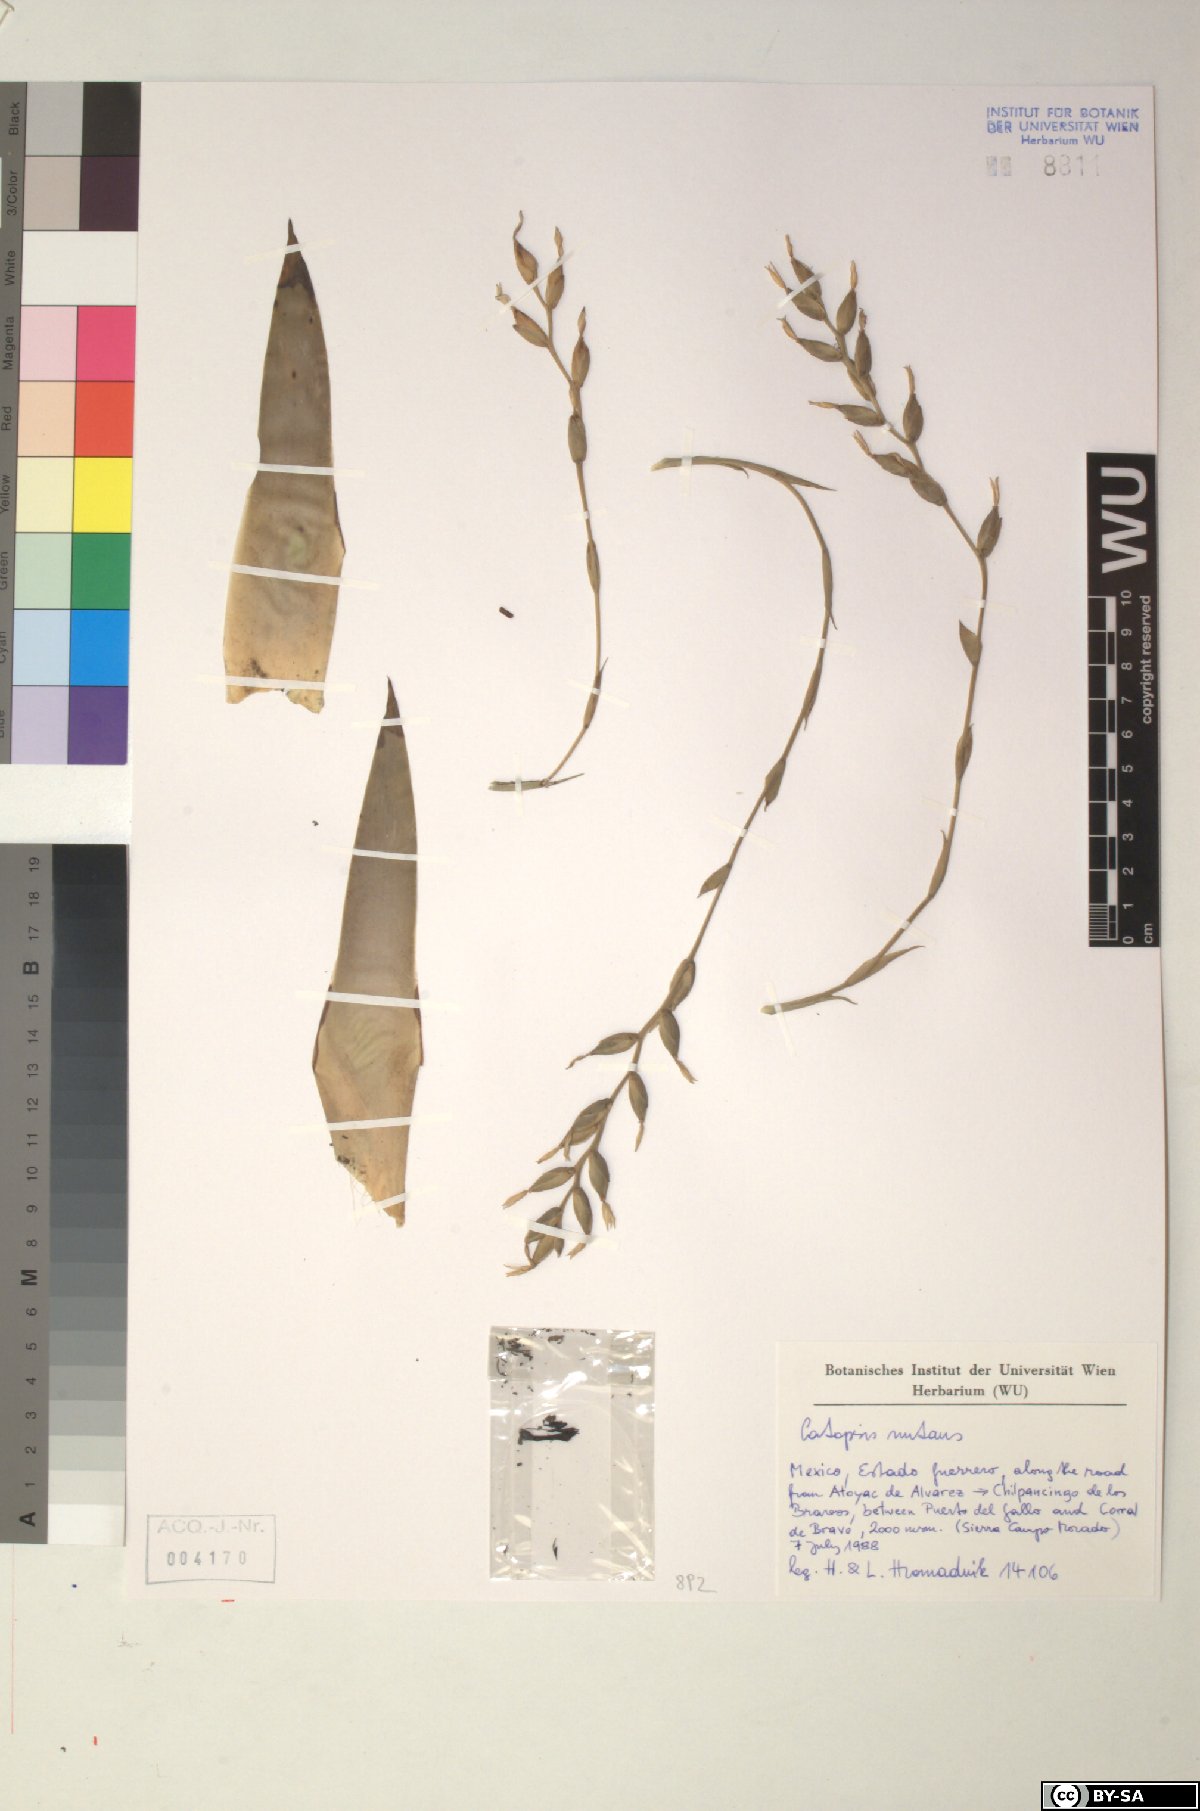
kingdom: Plantae
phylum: Tracheophyta
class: Liliopsida
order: Poales
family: Bromeliaceae
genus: Catopsis
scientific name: Catopsis nutans
